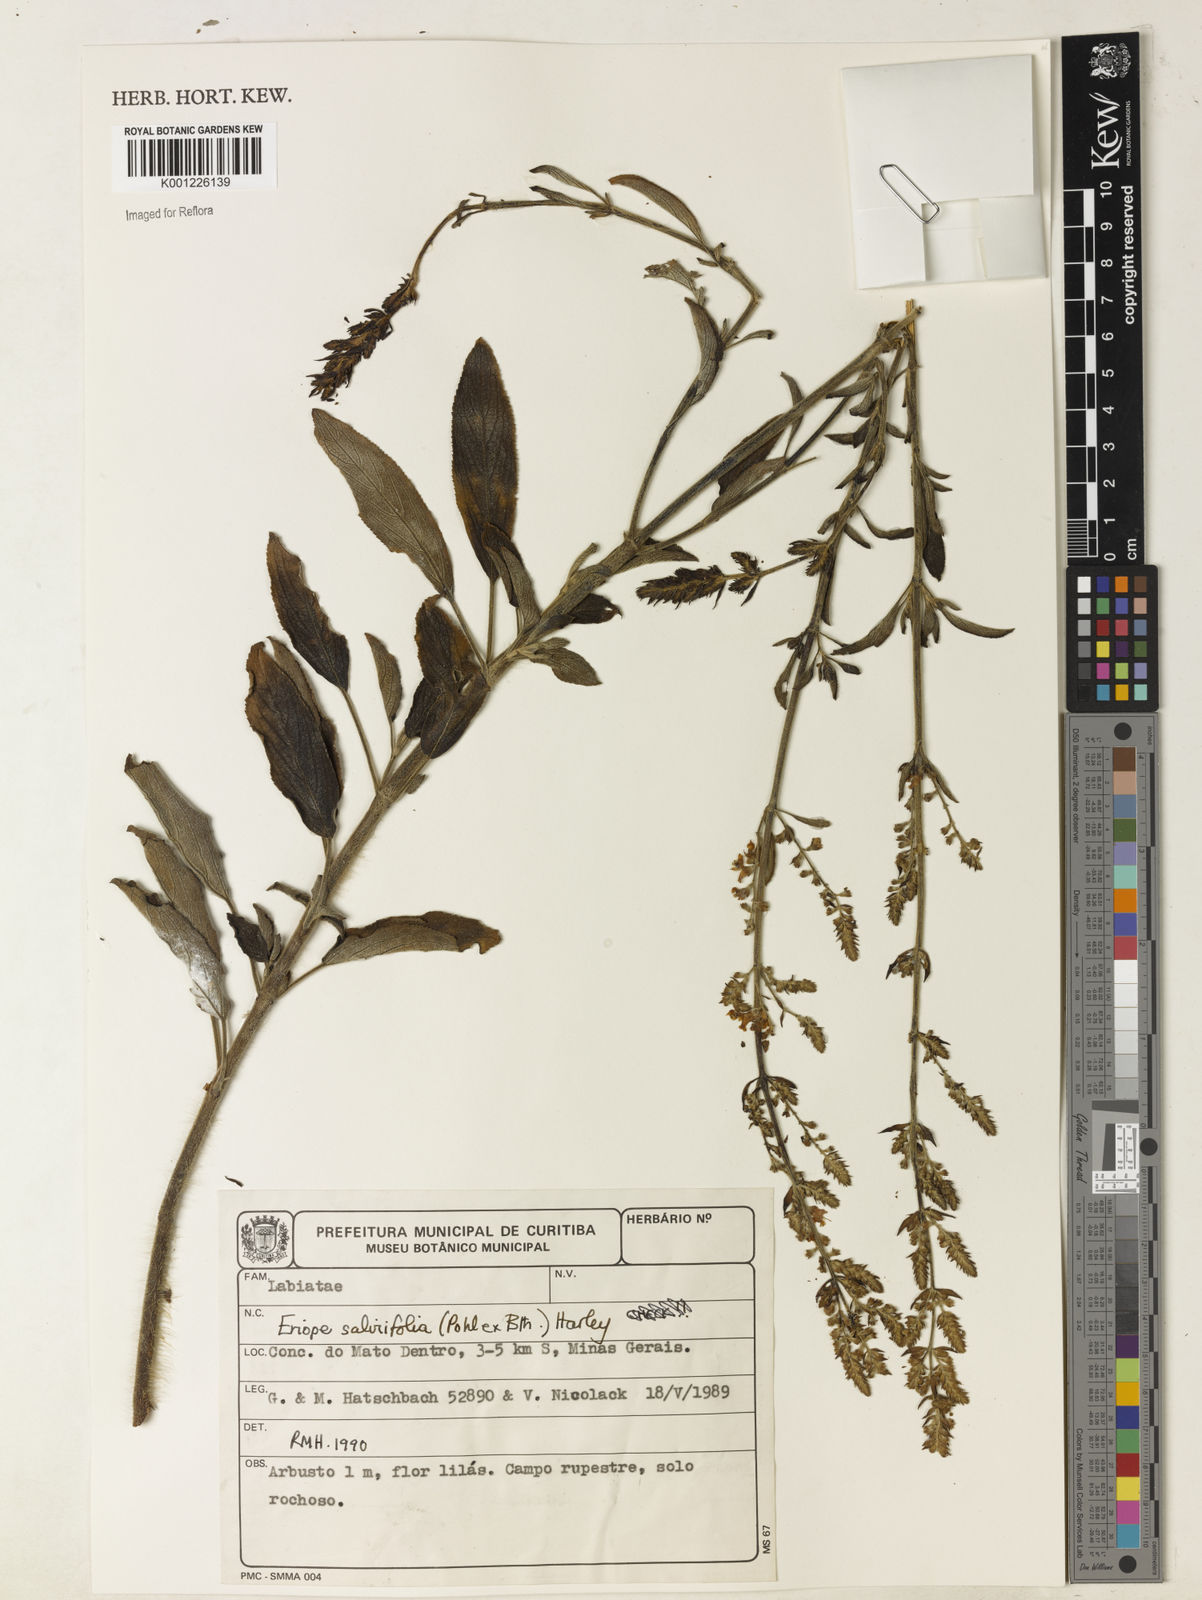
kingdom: Plantae
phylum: Tracheophyta
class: Magnoliopsida
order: Lamiales
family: Lamiaceae
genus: Eriope
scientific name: Eriope salviifolia
